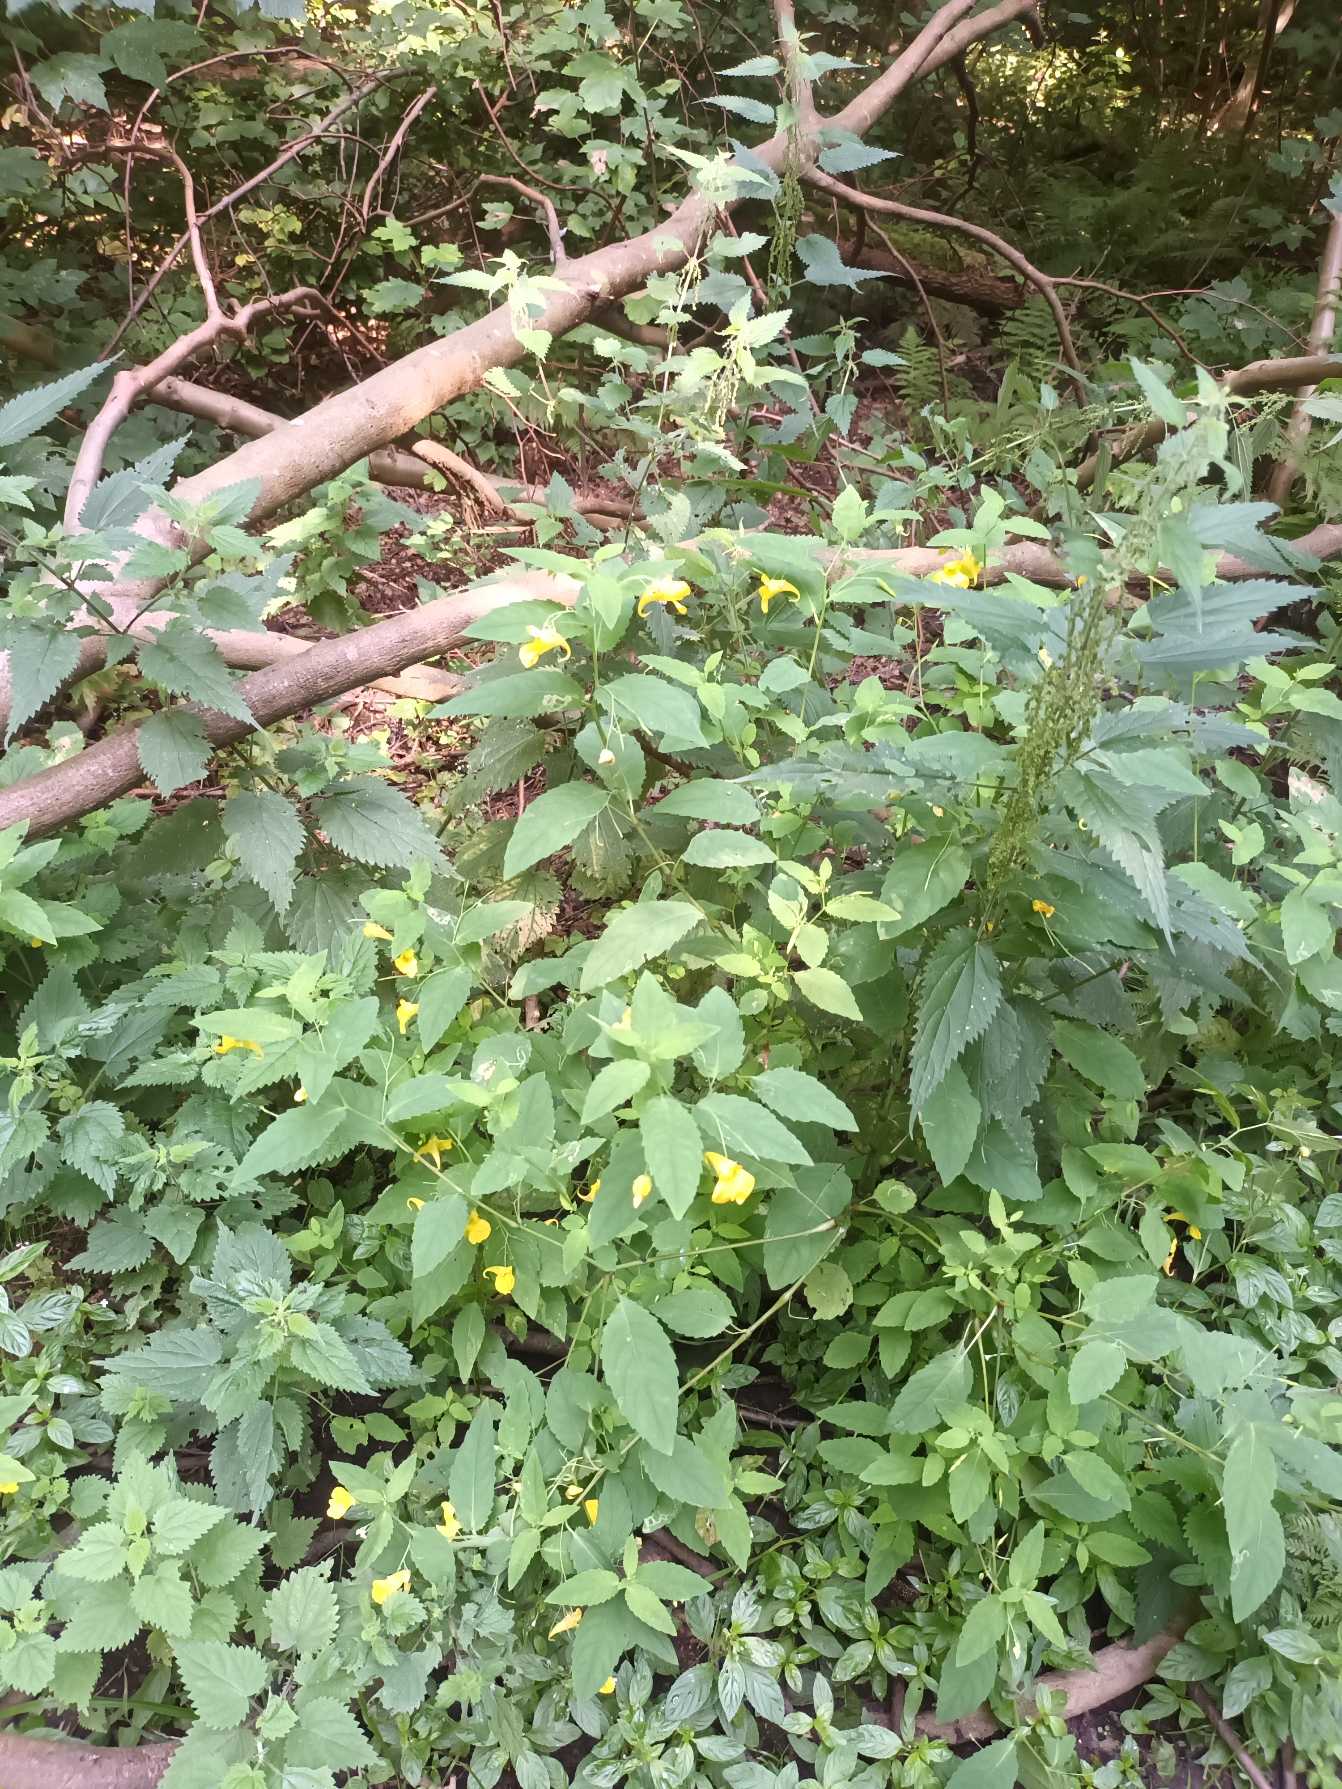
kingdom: Plantae
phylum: Tracheophyta
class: Magnoliopsida
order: Ericales
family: Balsaminaceae
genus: Impatiens
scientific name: Impatiens noli-tangere
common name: Spring-balsamin
